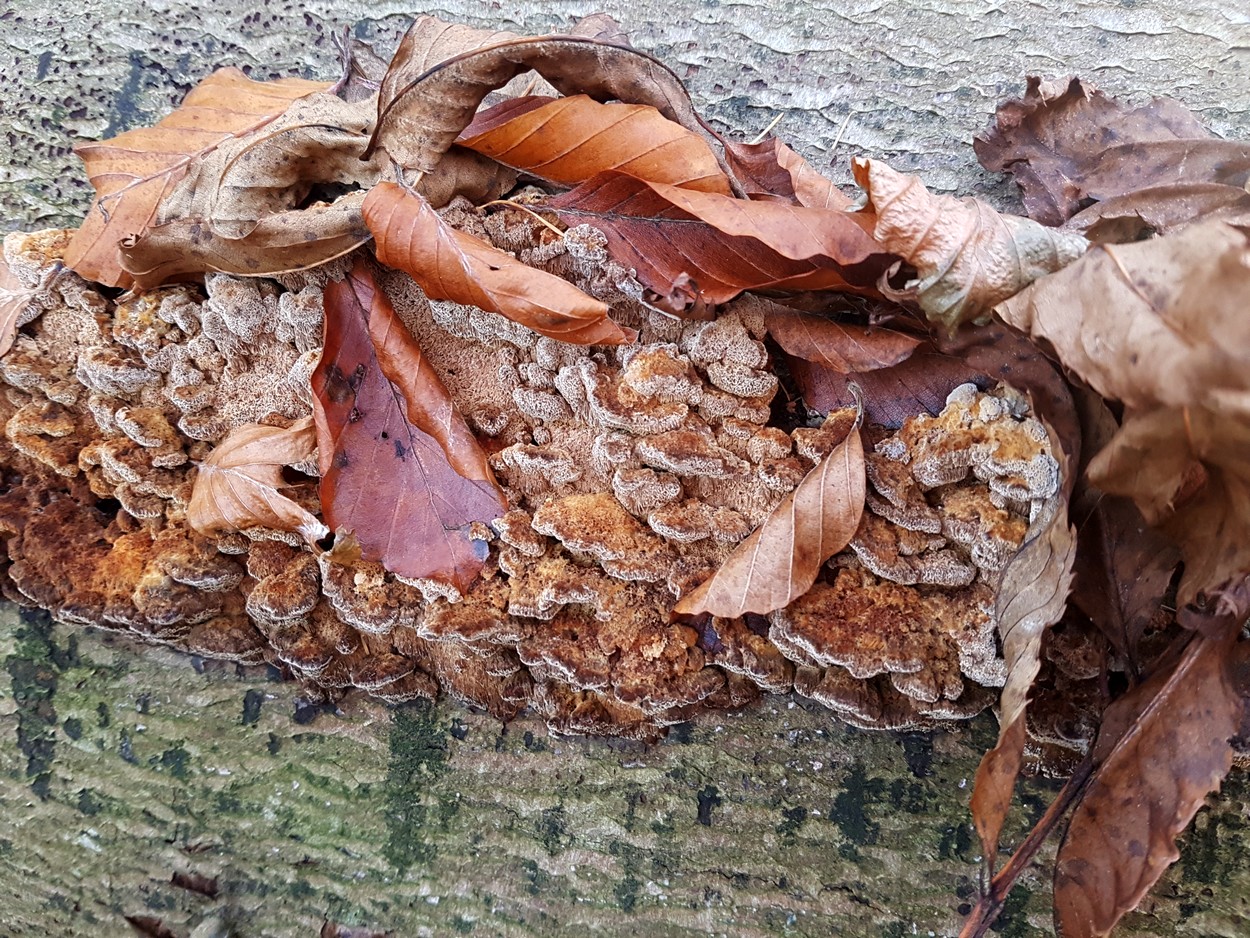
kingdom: Fungi
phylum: Basidiomycota
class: Agaricomycetes
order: Hymenochaetales
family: Hymenochaetaceae
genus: Mensularia
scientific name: Mensularia nodulosa
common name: bøge-spejlporesvamp
